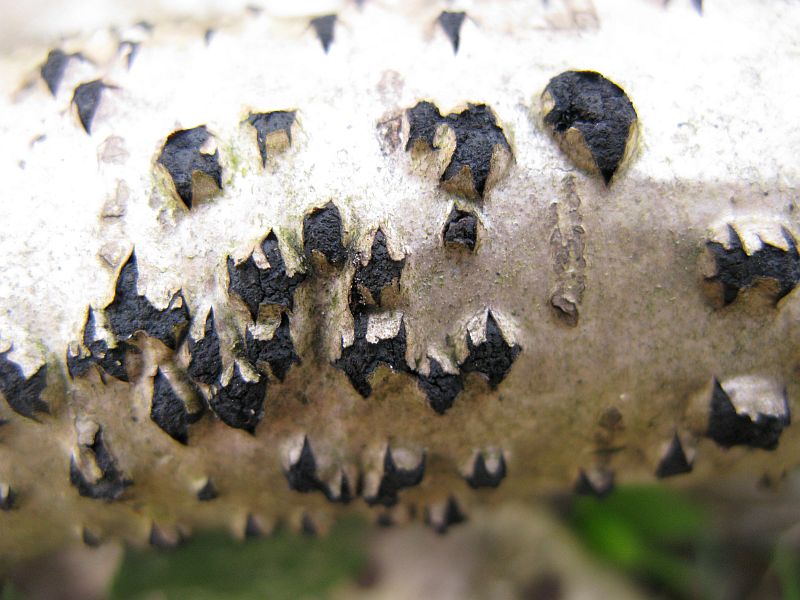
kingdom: Fungi
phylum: Ascomycota
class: Sordariomycetes
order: Xylariales
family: Diatrypaceae
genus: Diatrypella
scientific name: Diatrypella favacea
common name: Birch blackhead
